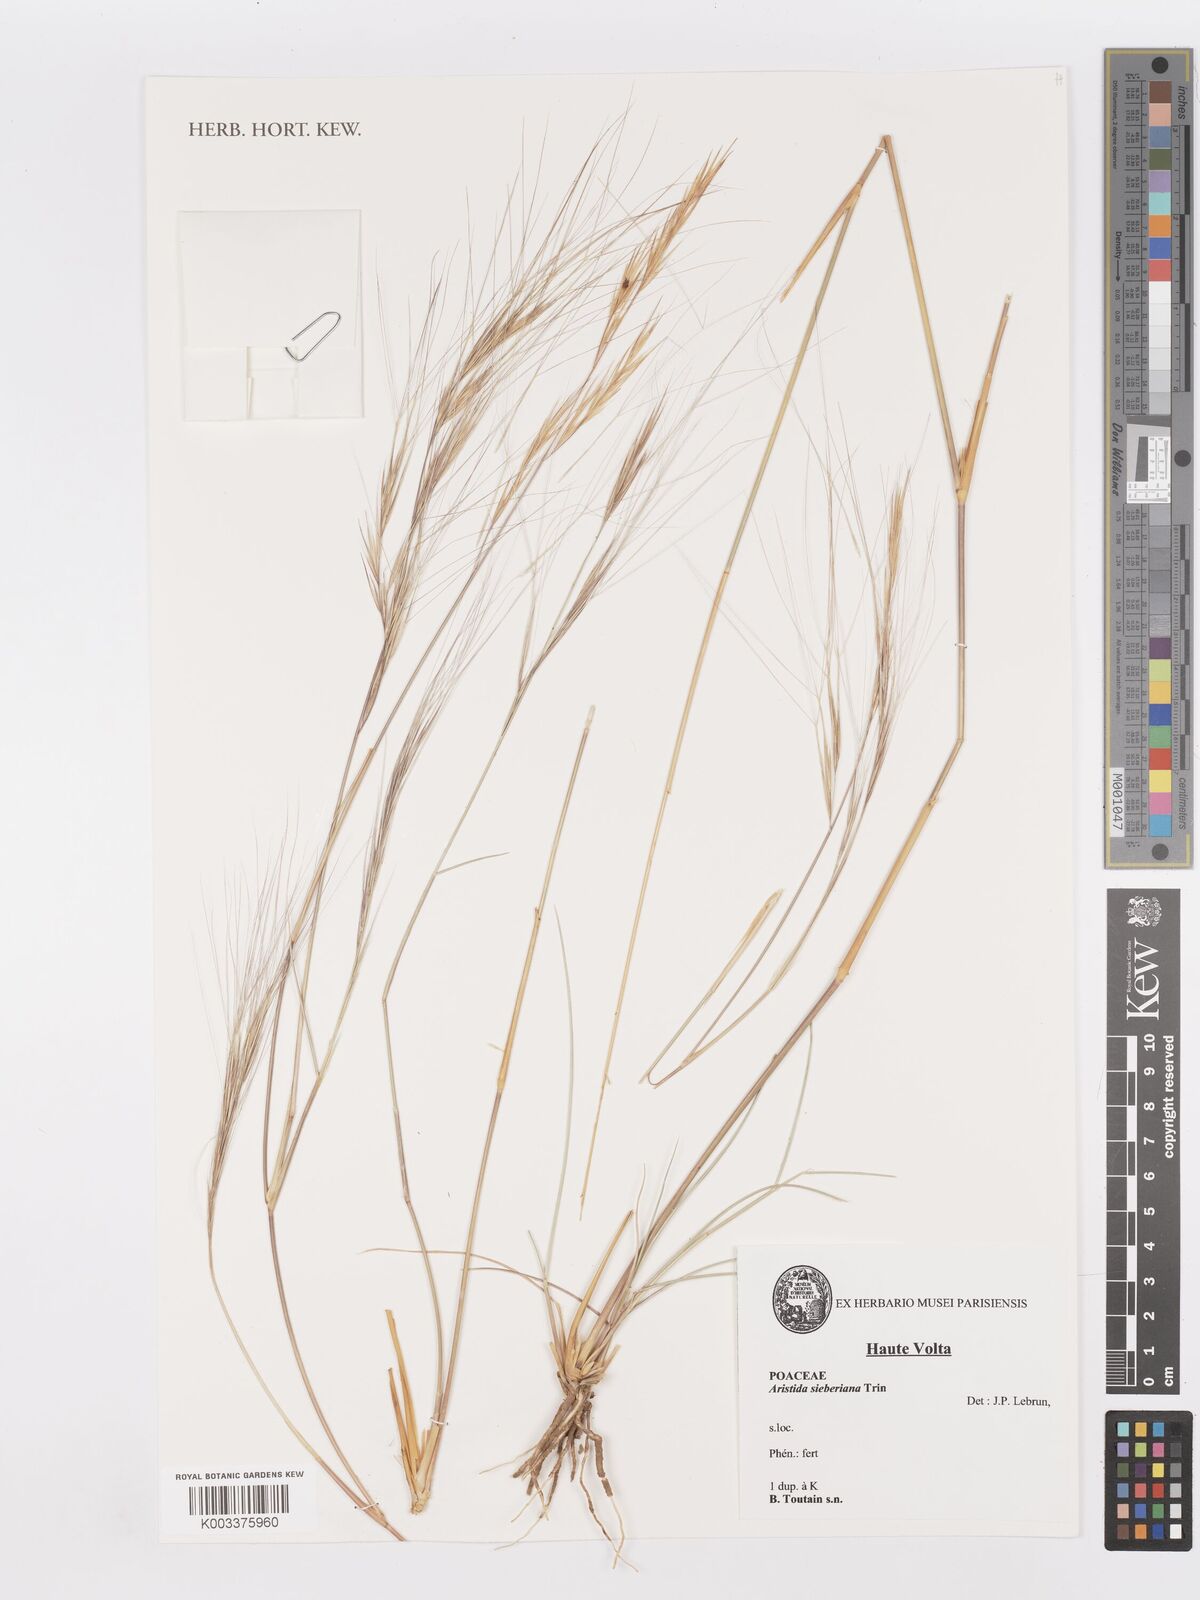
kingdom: Plantae
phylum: Tracheophyta
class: Liliopsida
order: Poales
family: Poaceae
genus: Aristida
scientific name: Aristida sieberiana
